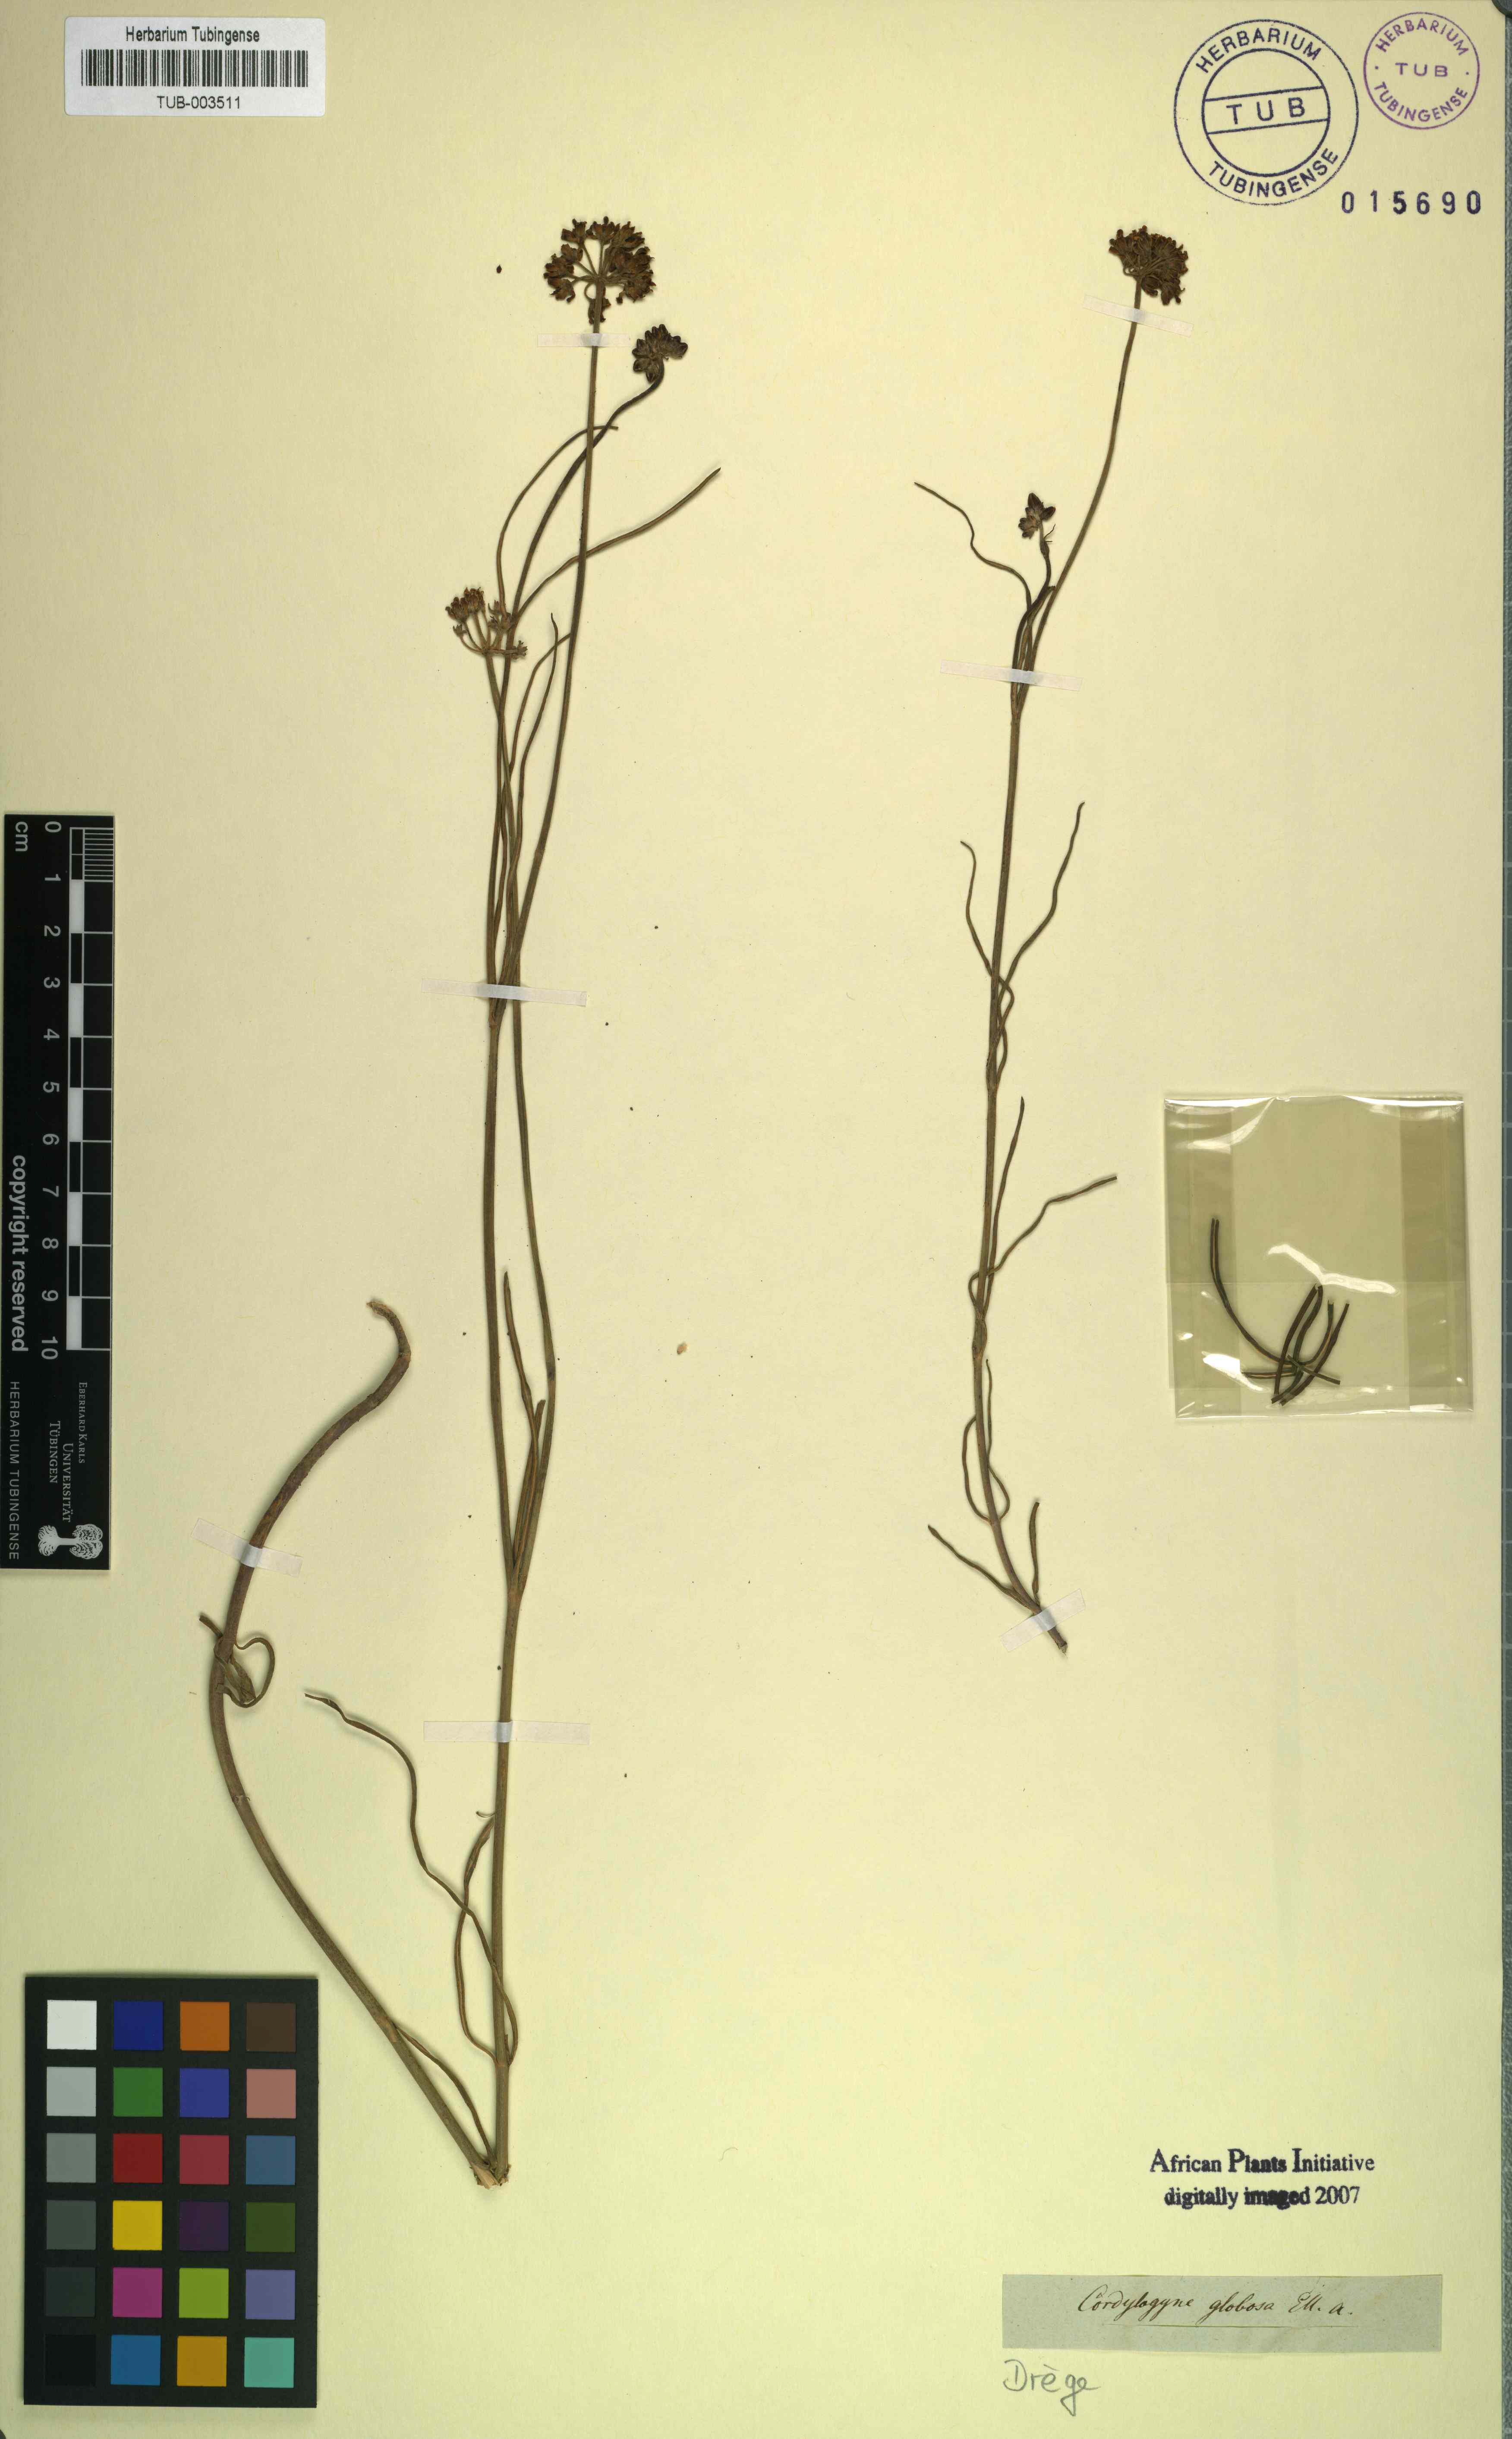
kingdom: Plantae
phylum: Tracheophyta
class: Magnoliopsida
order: Gentianales
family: Apocynaceae
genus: Cordylogyne
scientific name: Cordylogyne globosa
